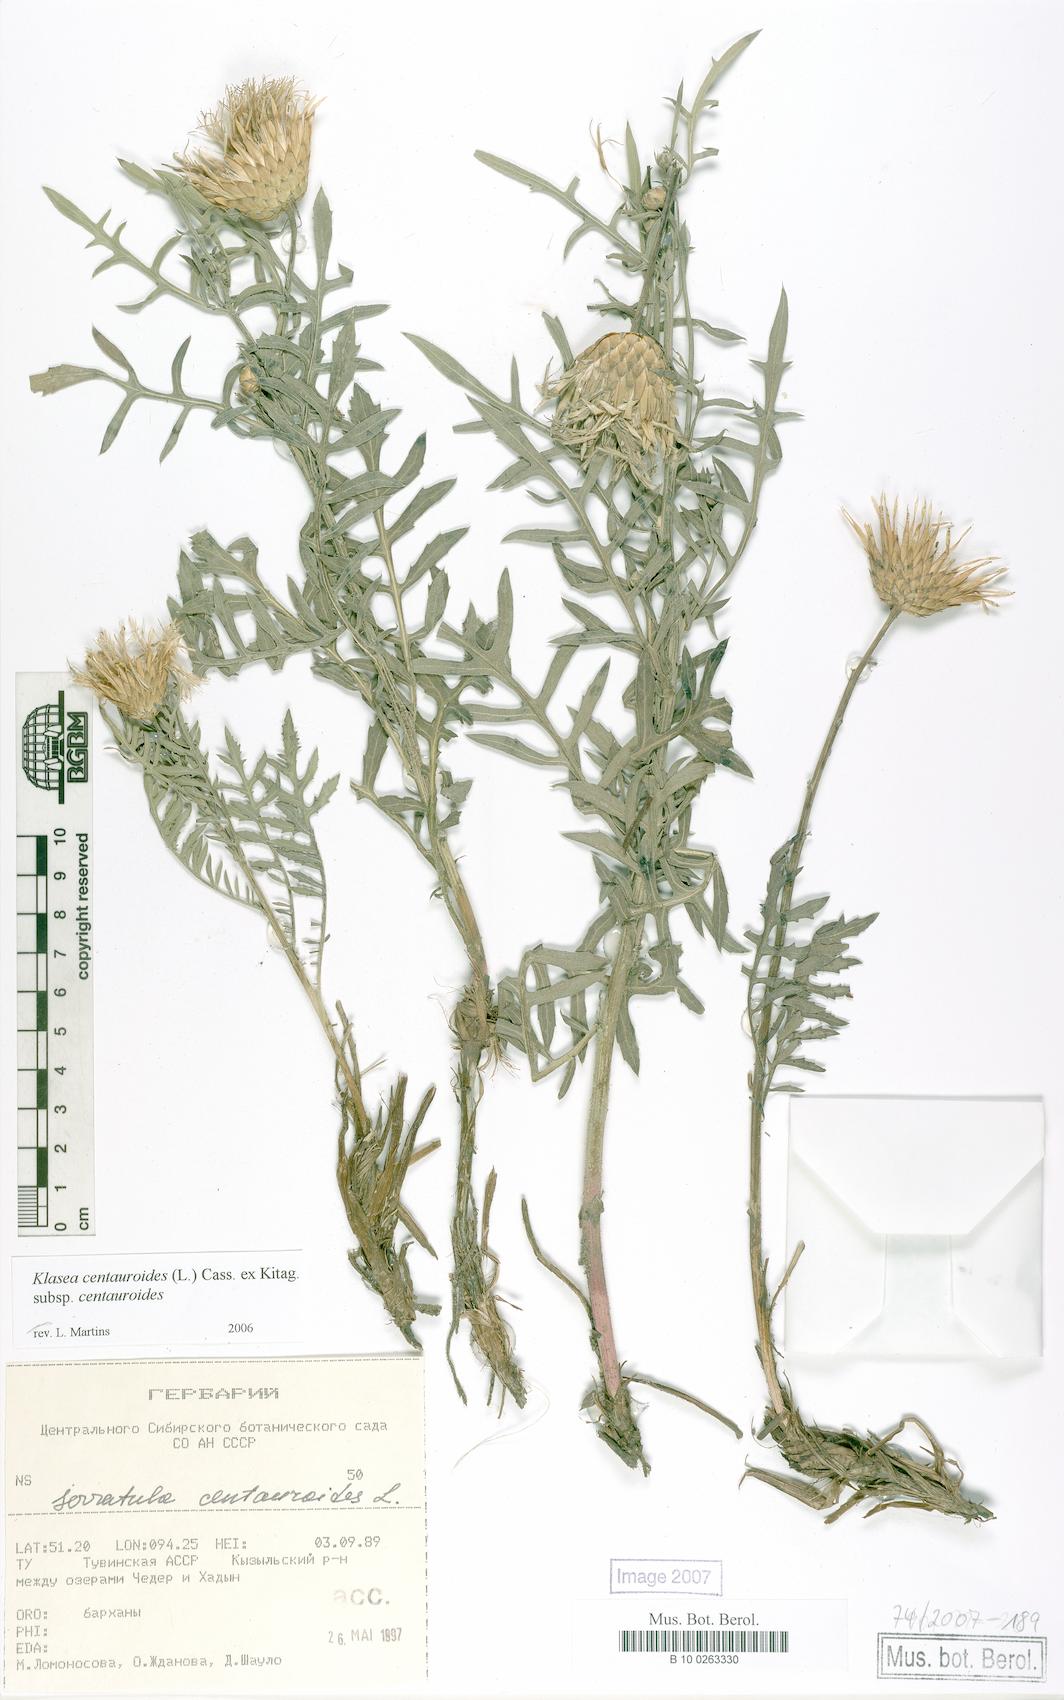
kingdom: Plantae
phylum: Tracheophyta
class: Magnoliopsida
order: Asterales
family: Asteraceae
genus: Klasea
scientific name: Klasea centauroides
